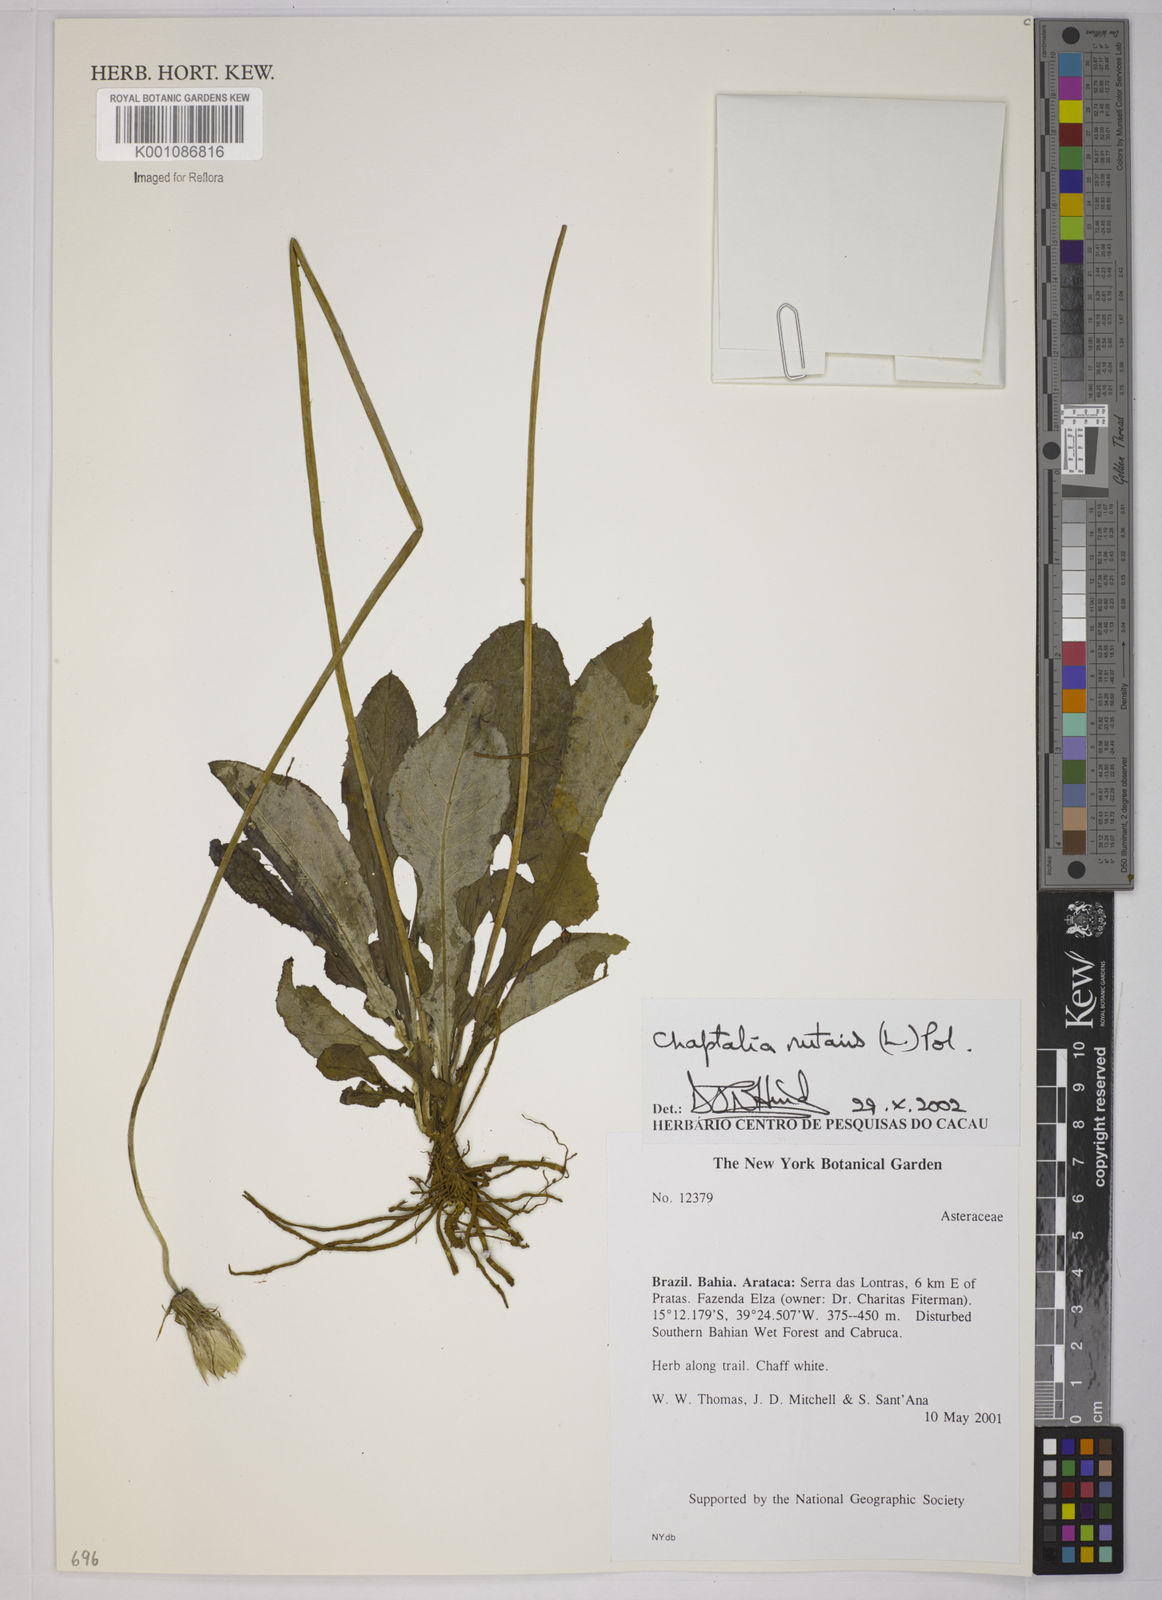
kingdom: Plantae
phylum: Tracheophyta
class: Magnoliopsida
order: Asterales
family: Asteraceae
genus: Chaptalia
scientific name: Chaptalia nutans
